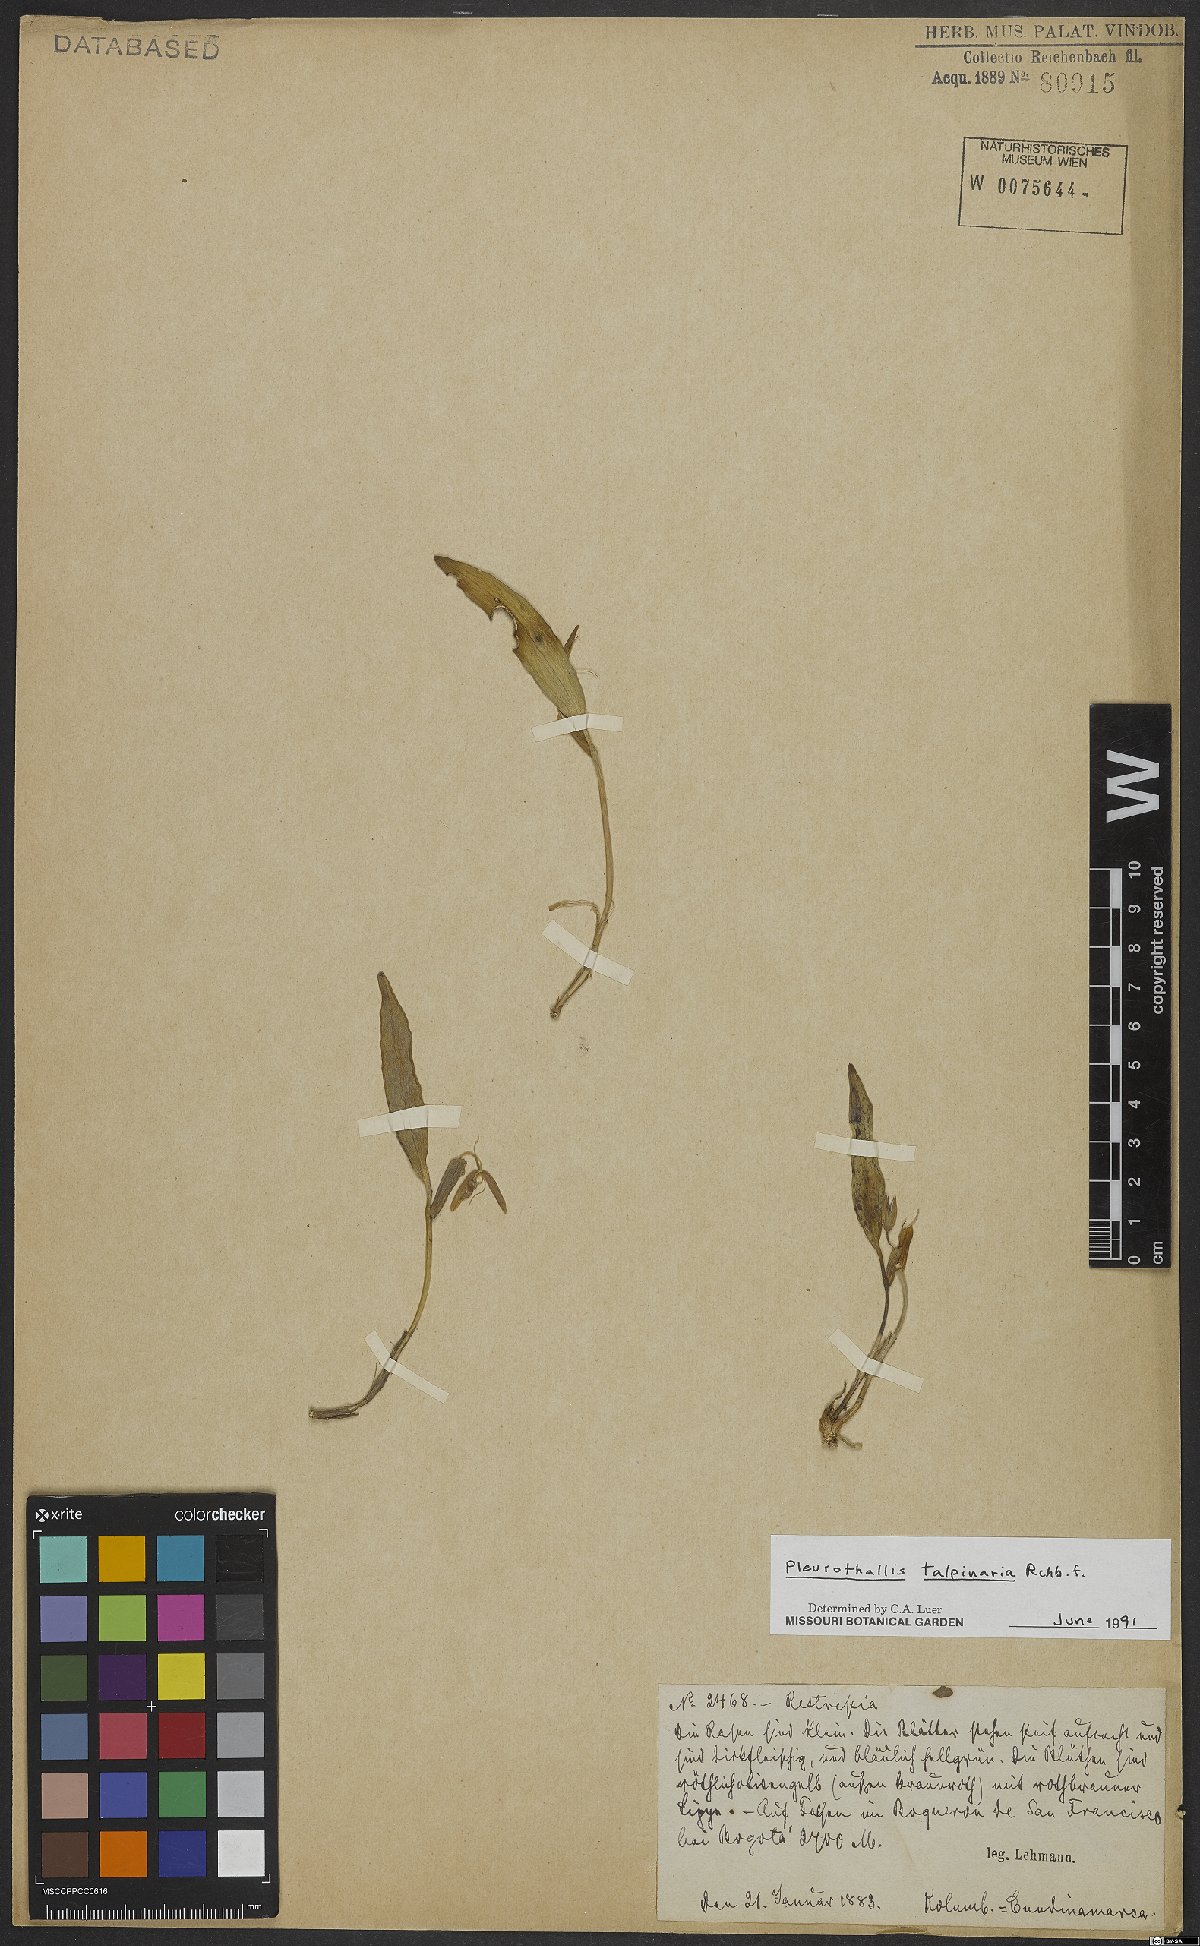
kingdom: Plantae
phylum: Tracheophyta
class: Liliopsida
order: Asparagales
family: Orchidaceae
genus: Pleurothallis
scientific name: Pleurothallis talpinaria
